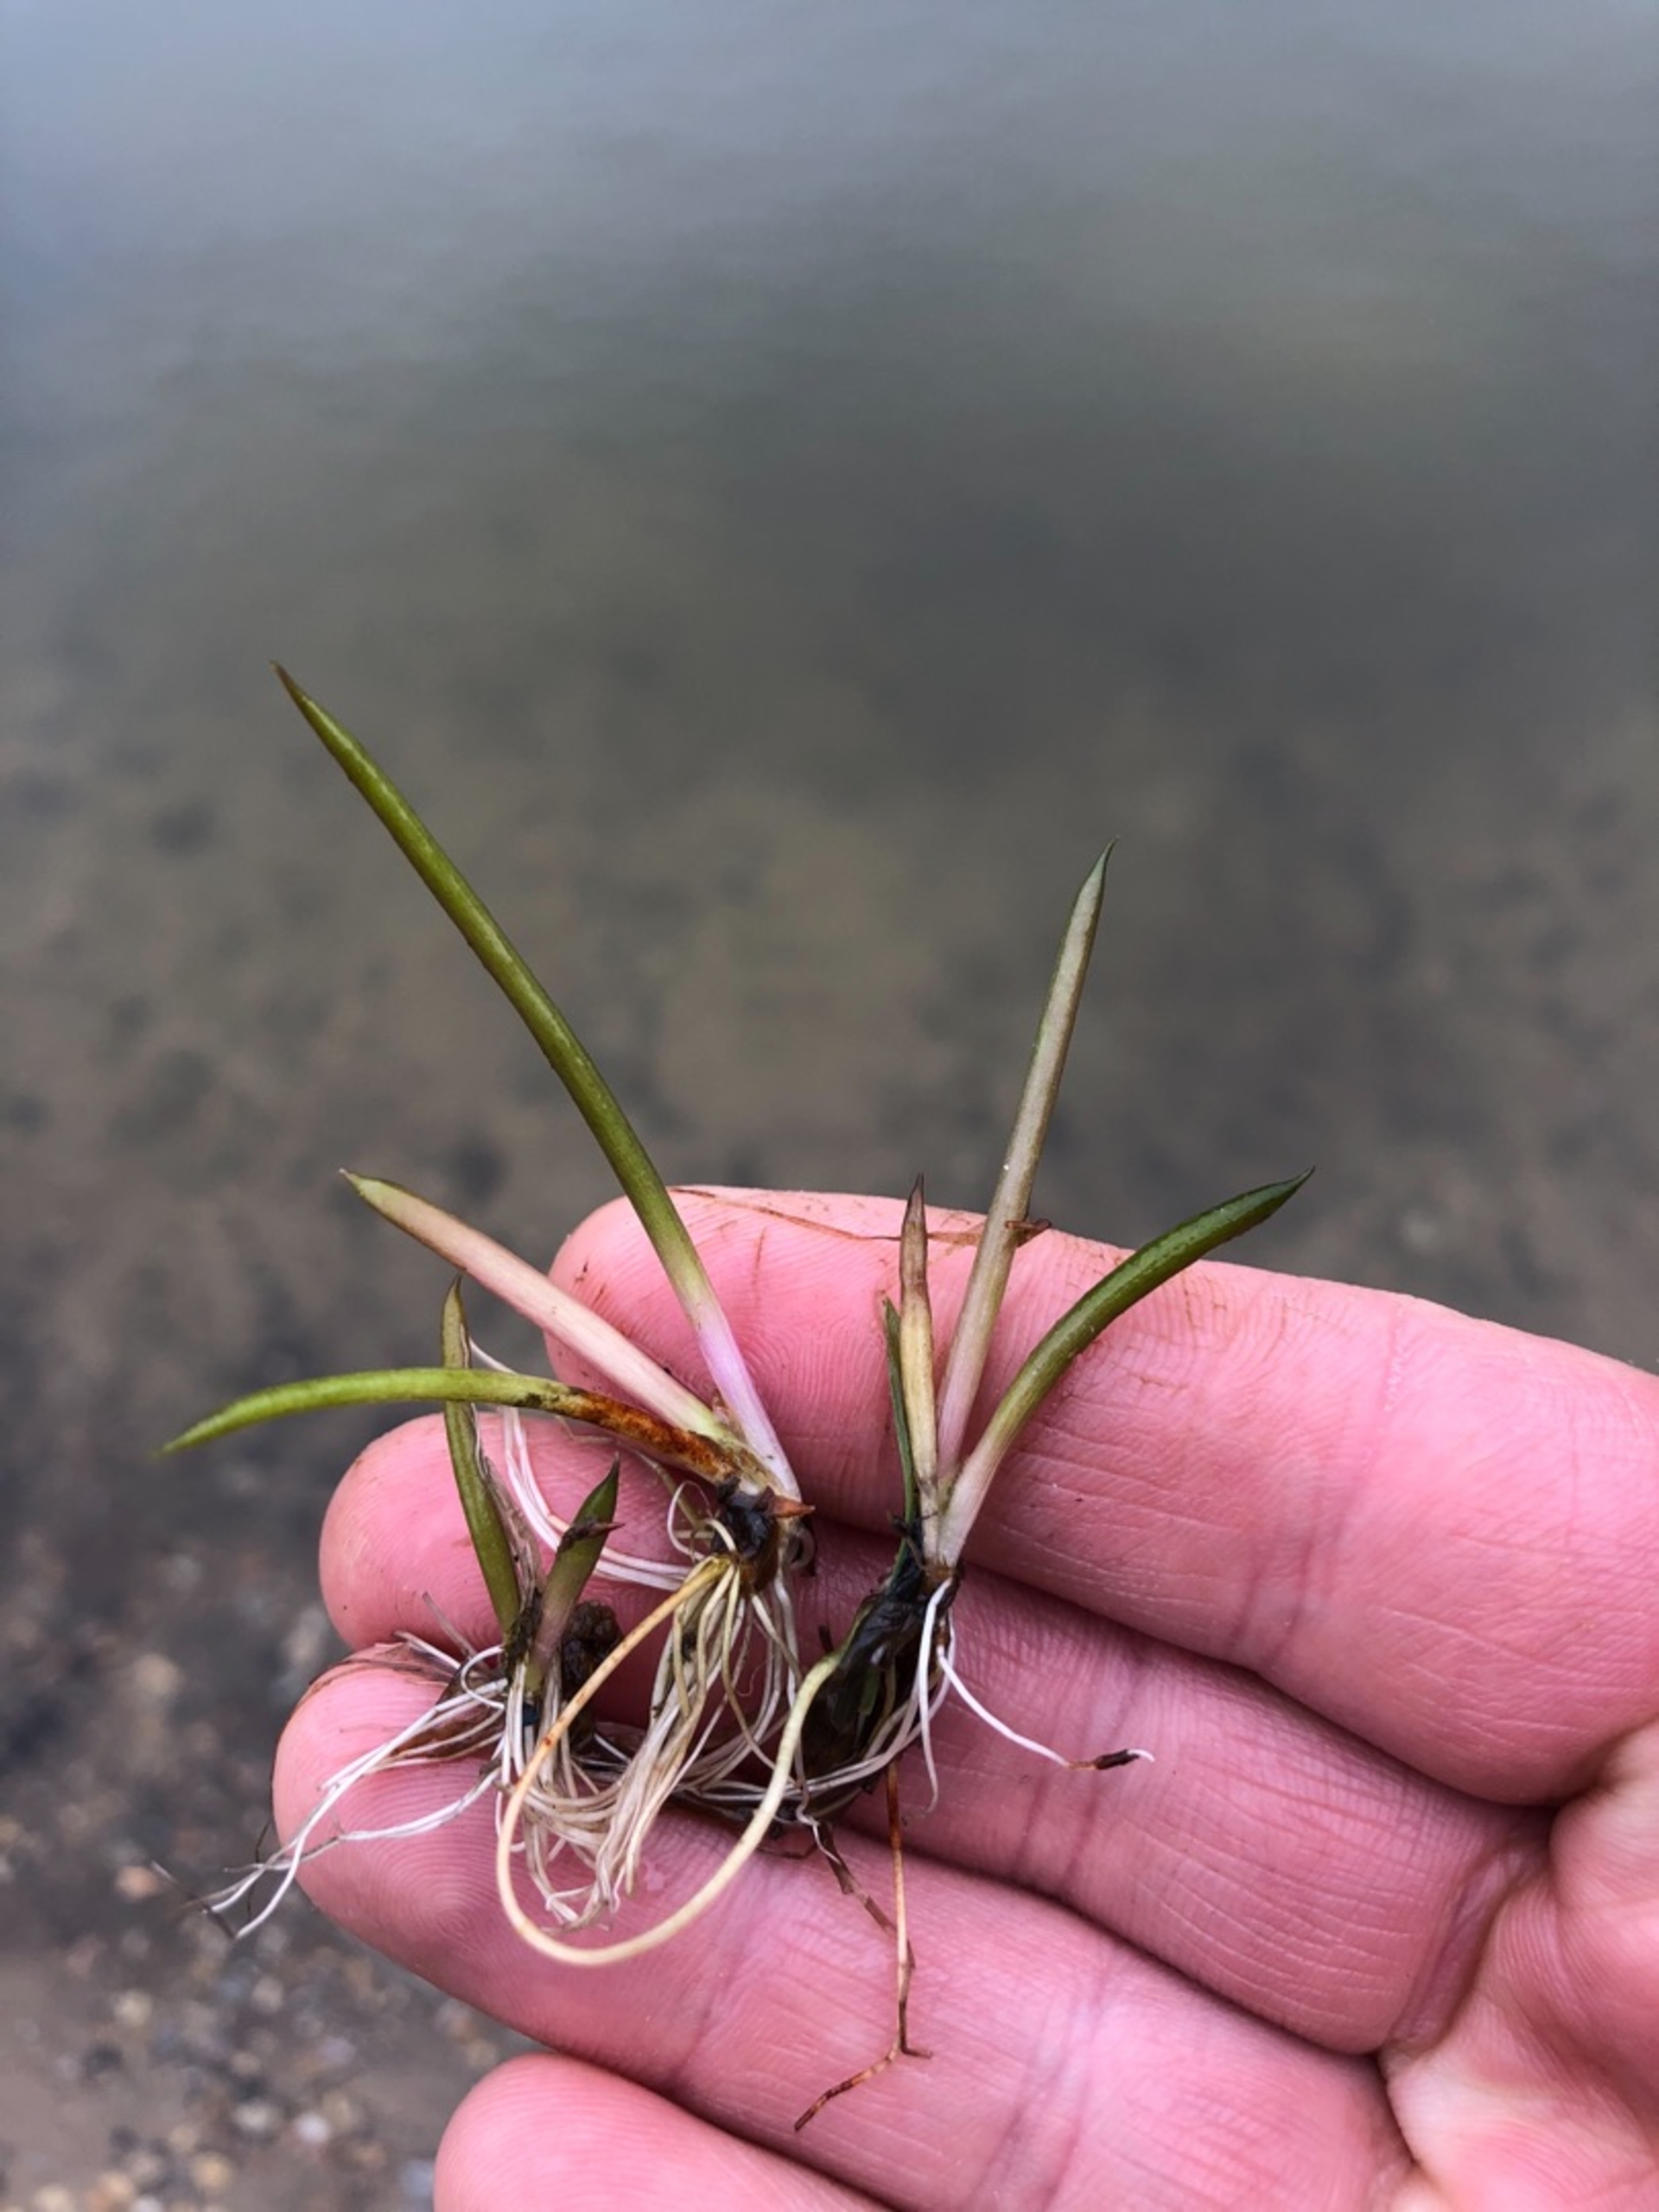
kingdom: Plantae
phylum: Tracheophyta
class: Magnoliopsida
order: Lamiales
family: Plantaginaceae
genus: Littorella
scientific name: Littorella uniflora
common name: Strandbo
